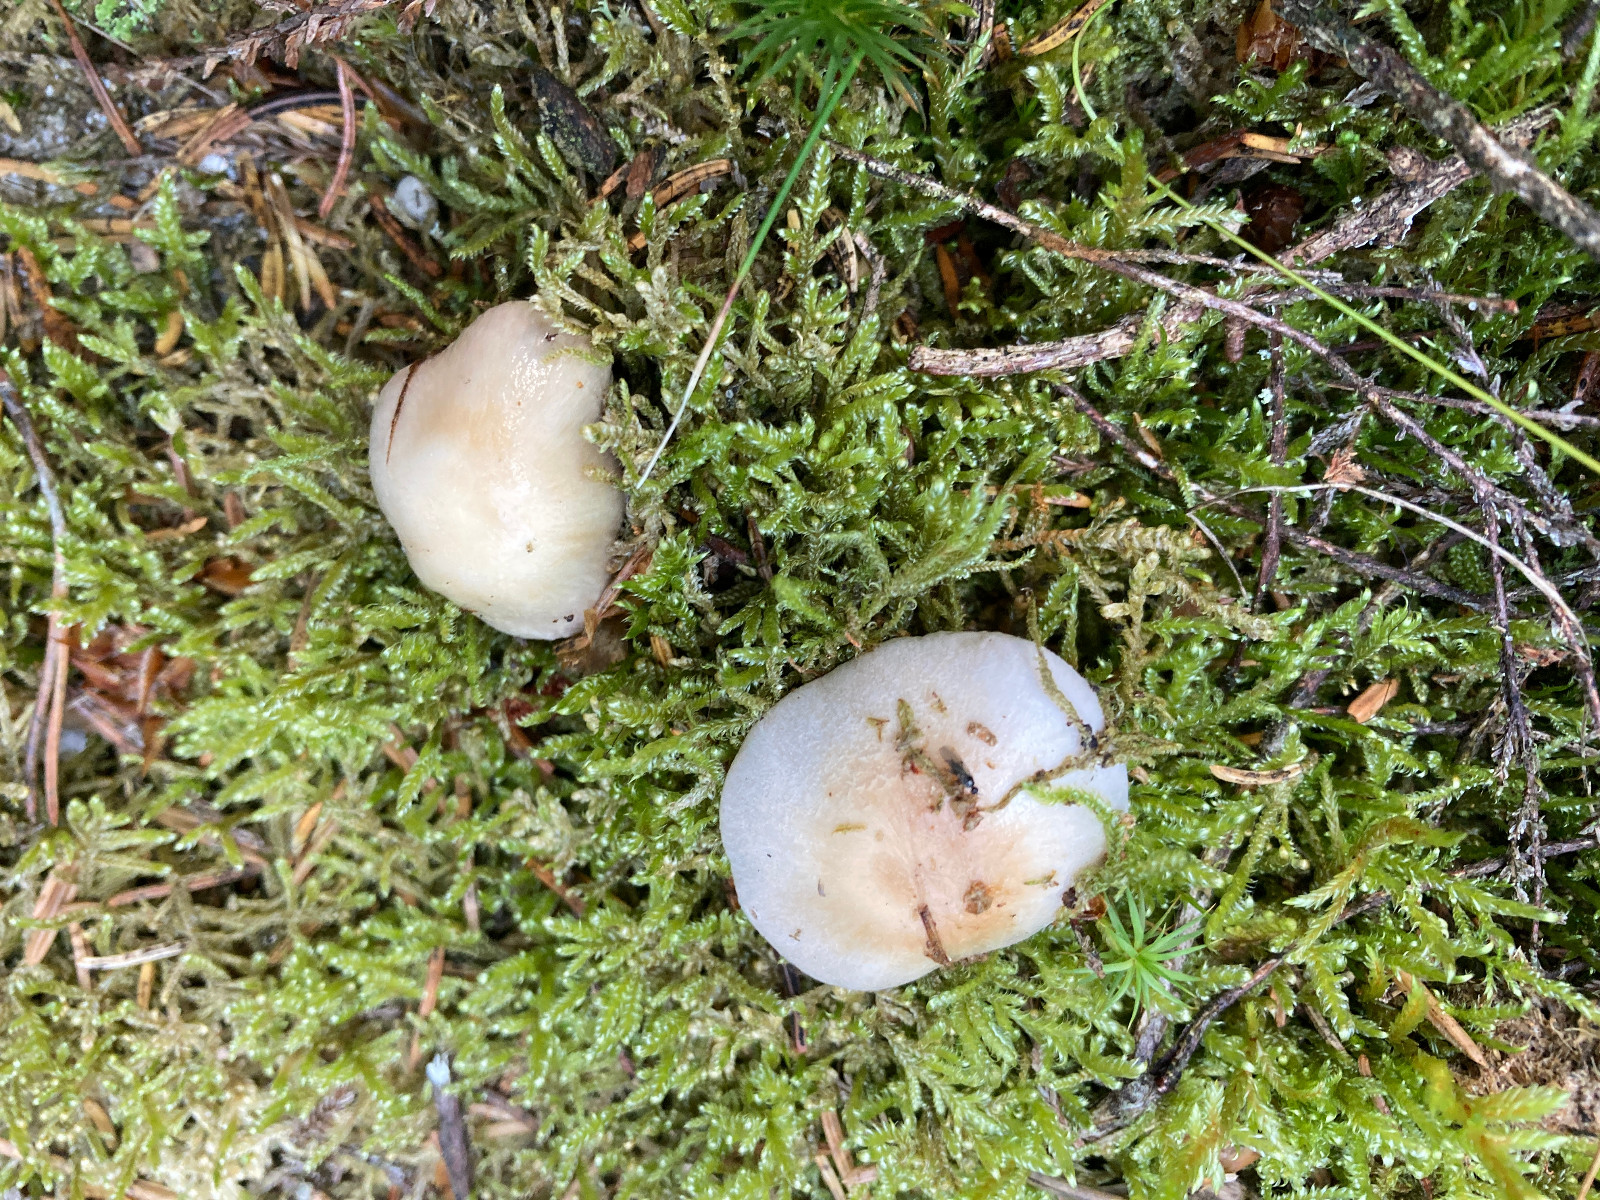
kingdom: Fungi
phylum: Basidiomycota
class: Agaricomycetes
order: Agaricales
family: Cortinariaceae
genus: Cortinarius
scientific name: Cortinarius
